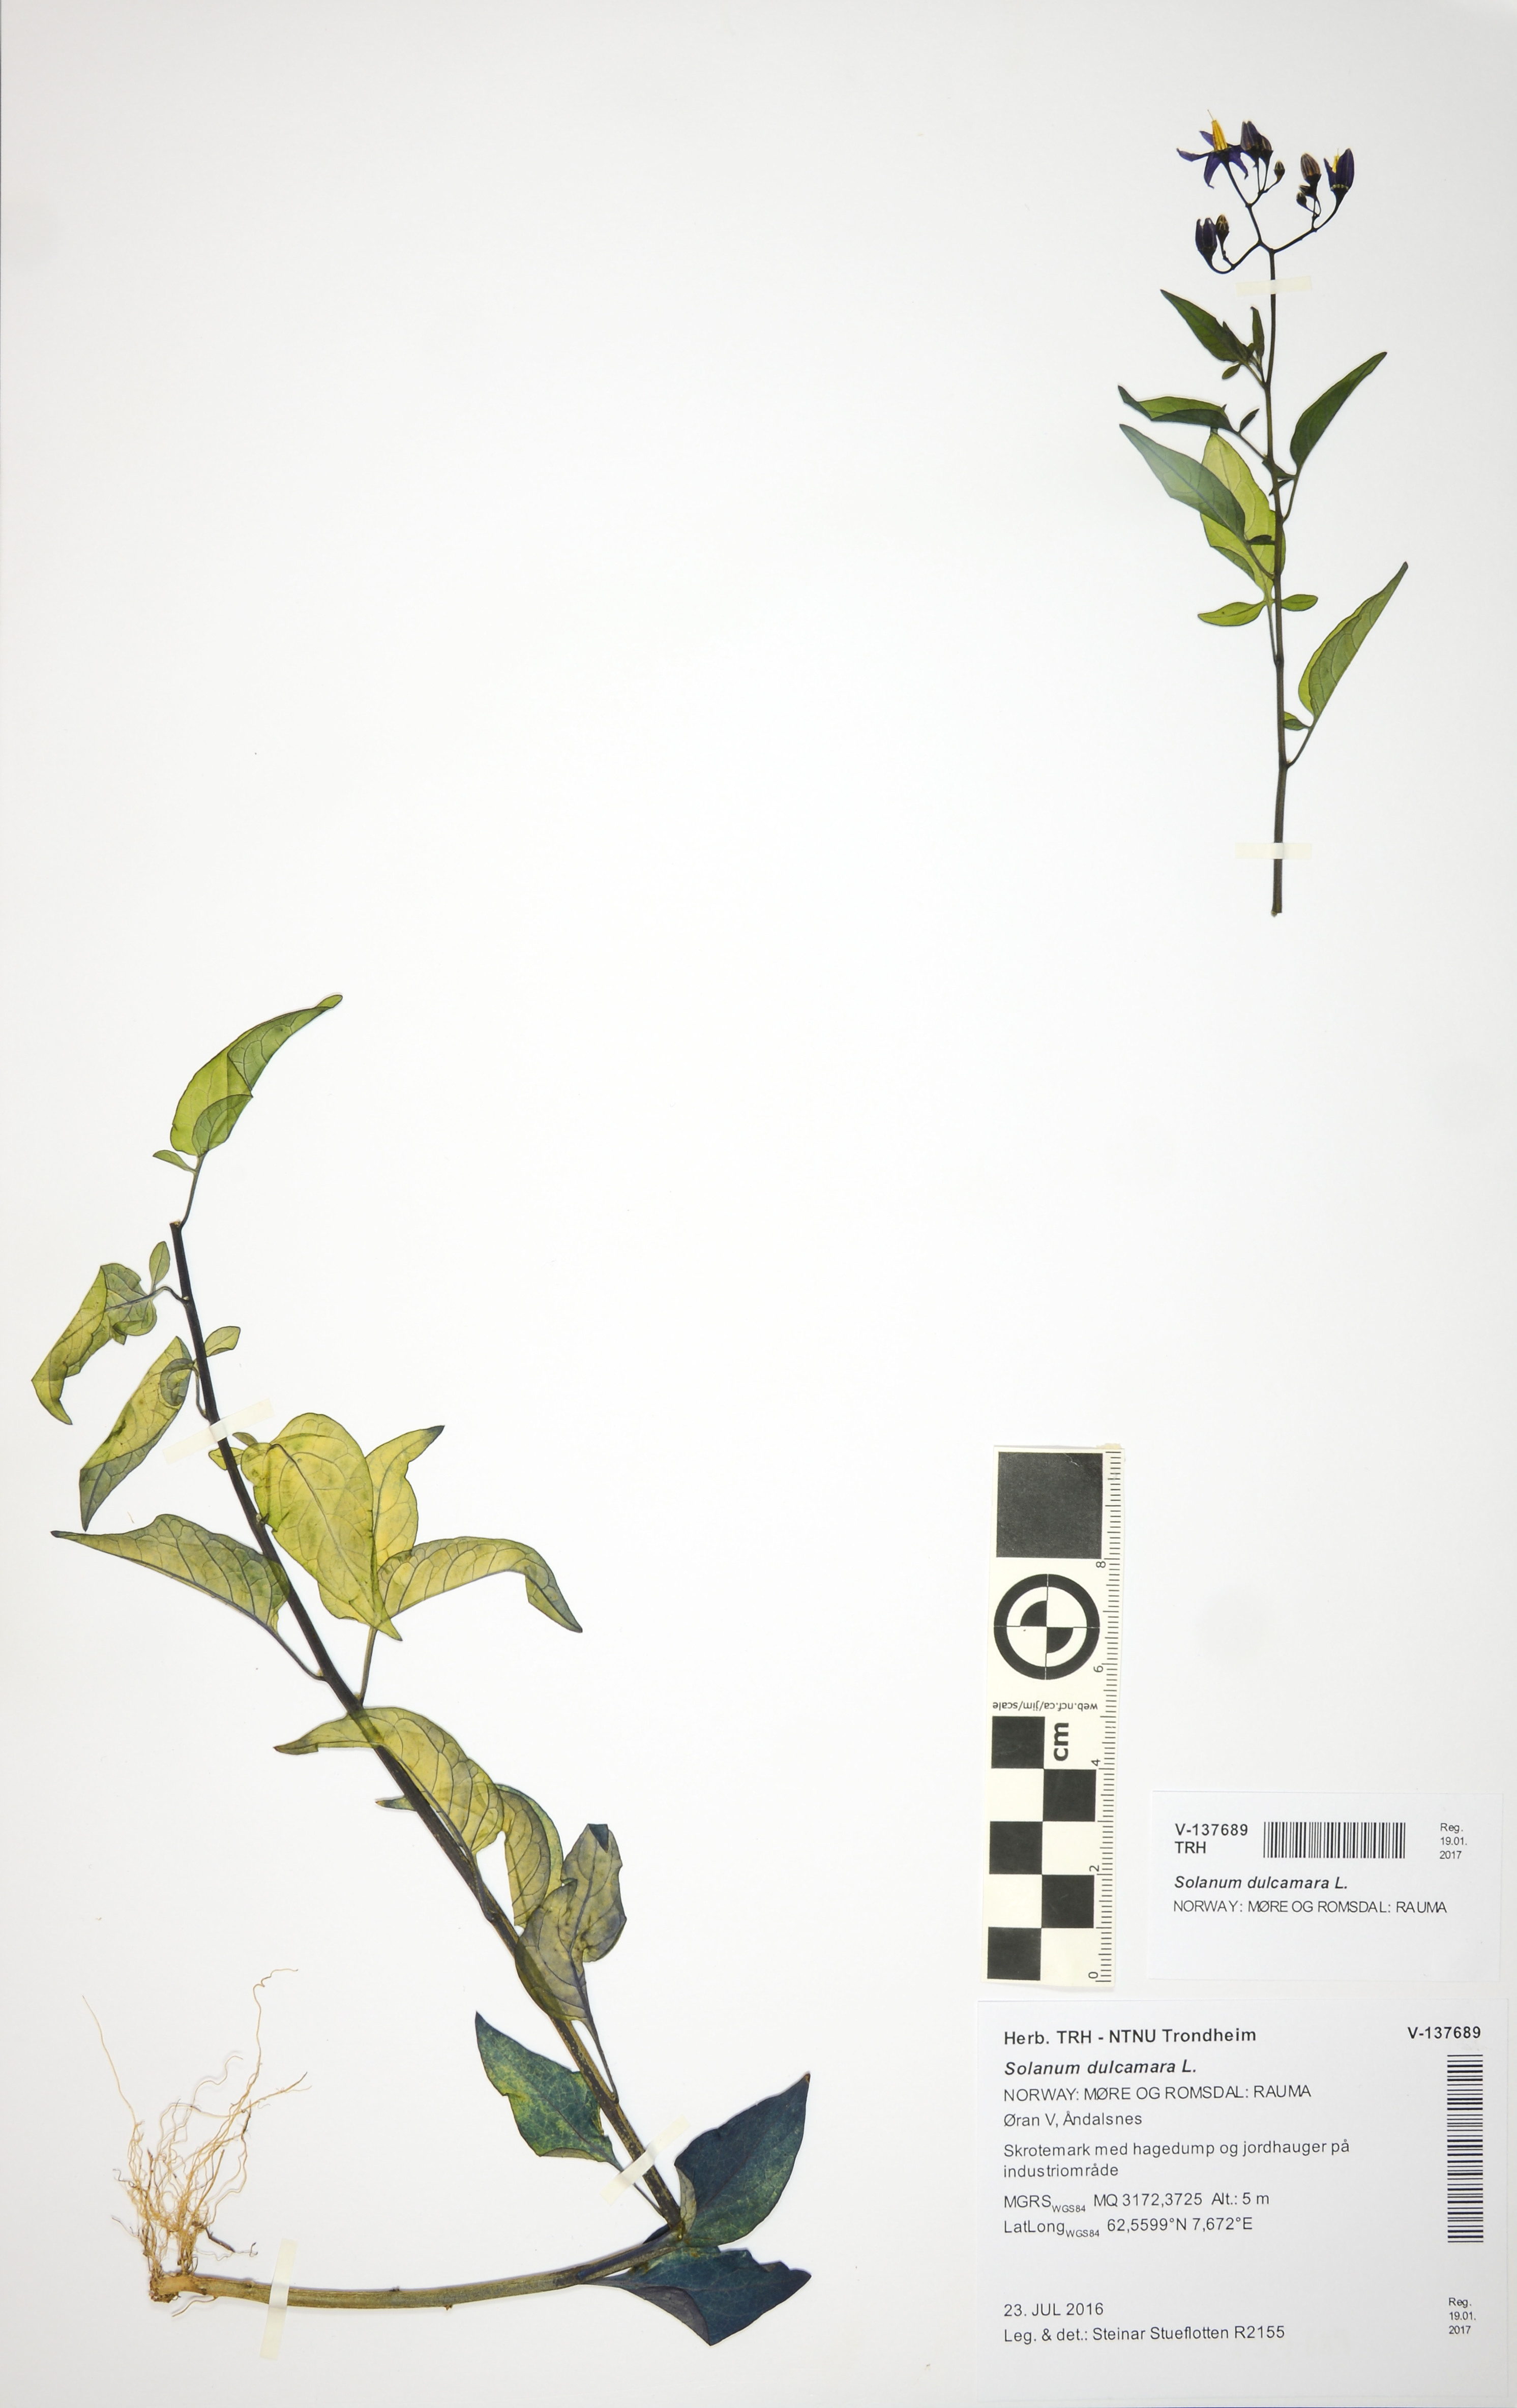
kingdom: Plantae
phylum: Tracheophyta
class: Magnoliopsida
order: Solanales
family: Solanaceae
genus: Solanum
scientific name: Solanum dulcamara
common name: Climbing nightshade
